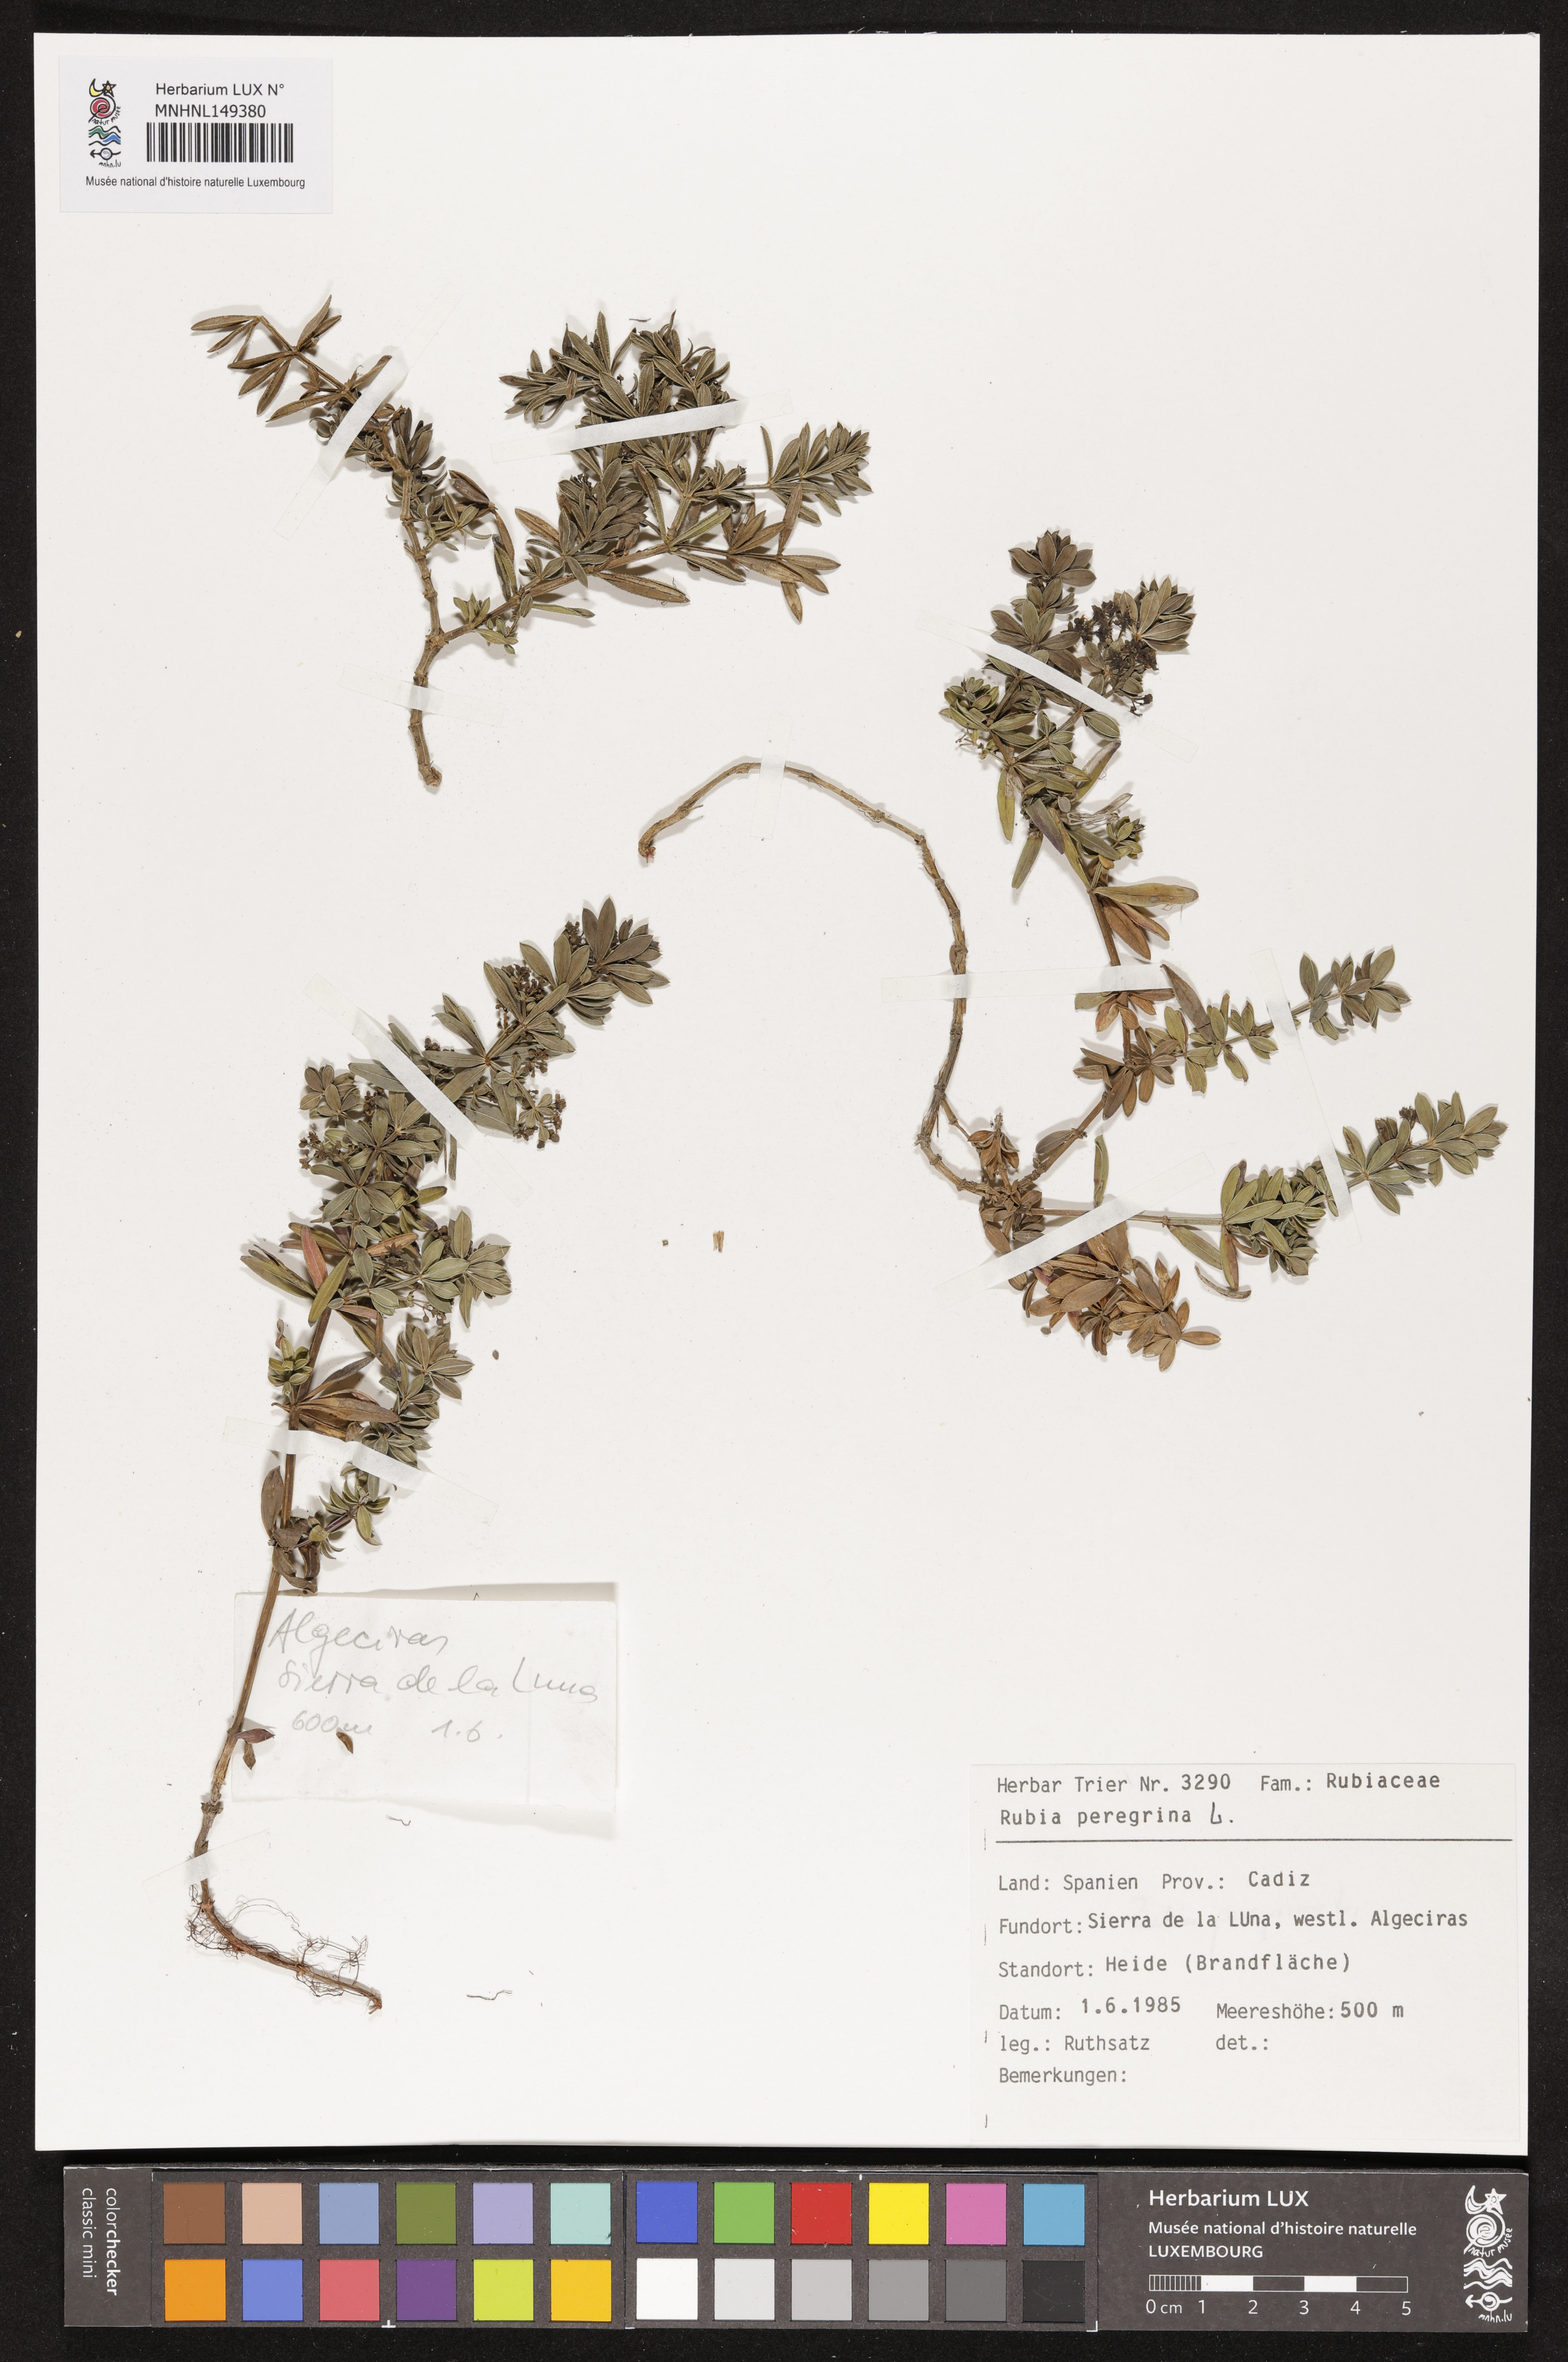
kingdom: Plantae
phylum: Tracheophyta
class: Magnoliopsida
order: Gentianales
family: Rubiaceae
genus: Rubia
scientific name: Rubia peregrina
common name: Wild madder
